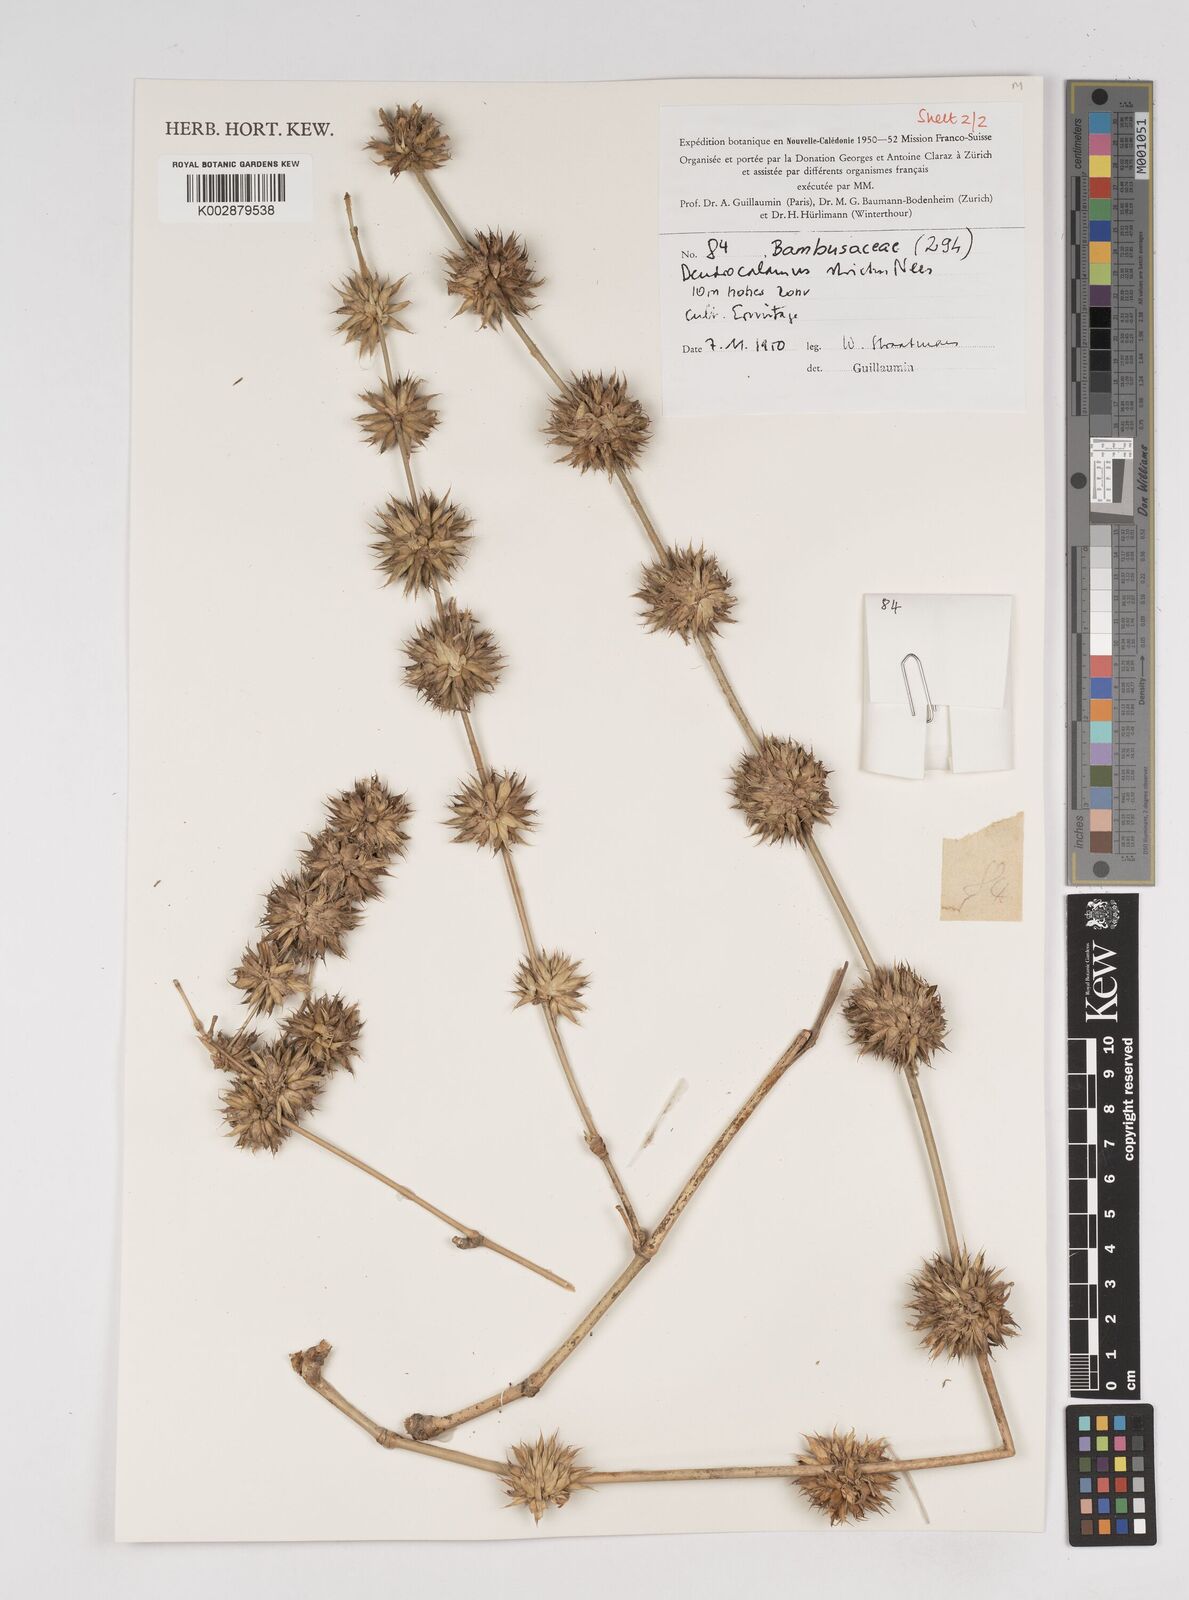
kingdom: Plantae
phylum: Tracheophyta
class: Liliopsida
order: Poales
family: Poaceae
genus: Dendrocalamus
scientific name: Dendrocalamus strictus
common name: Male bamboo
